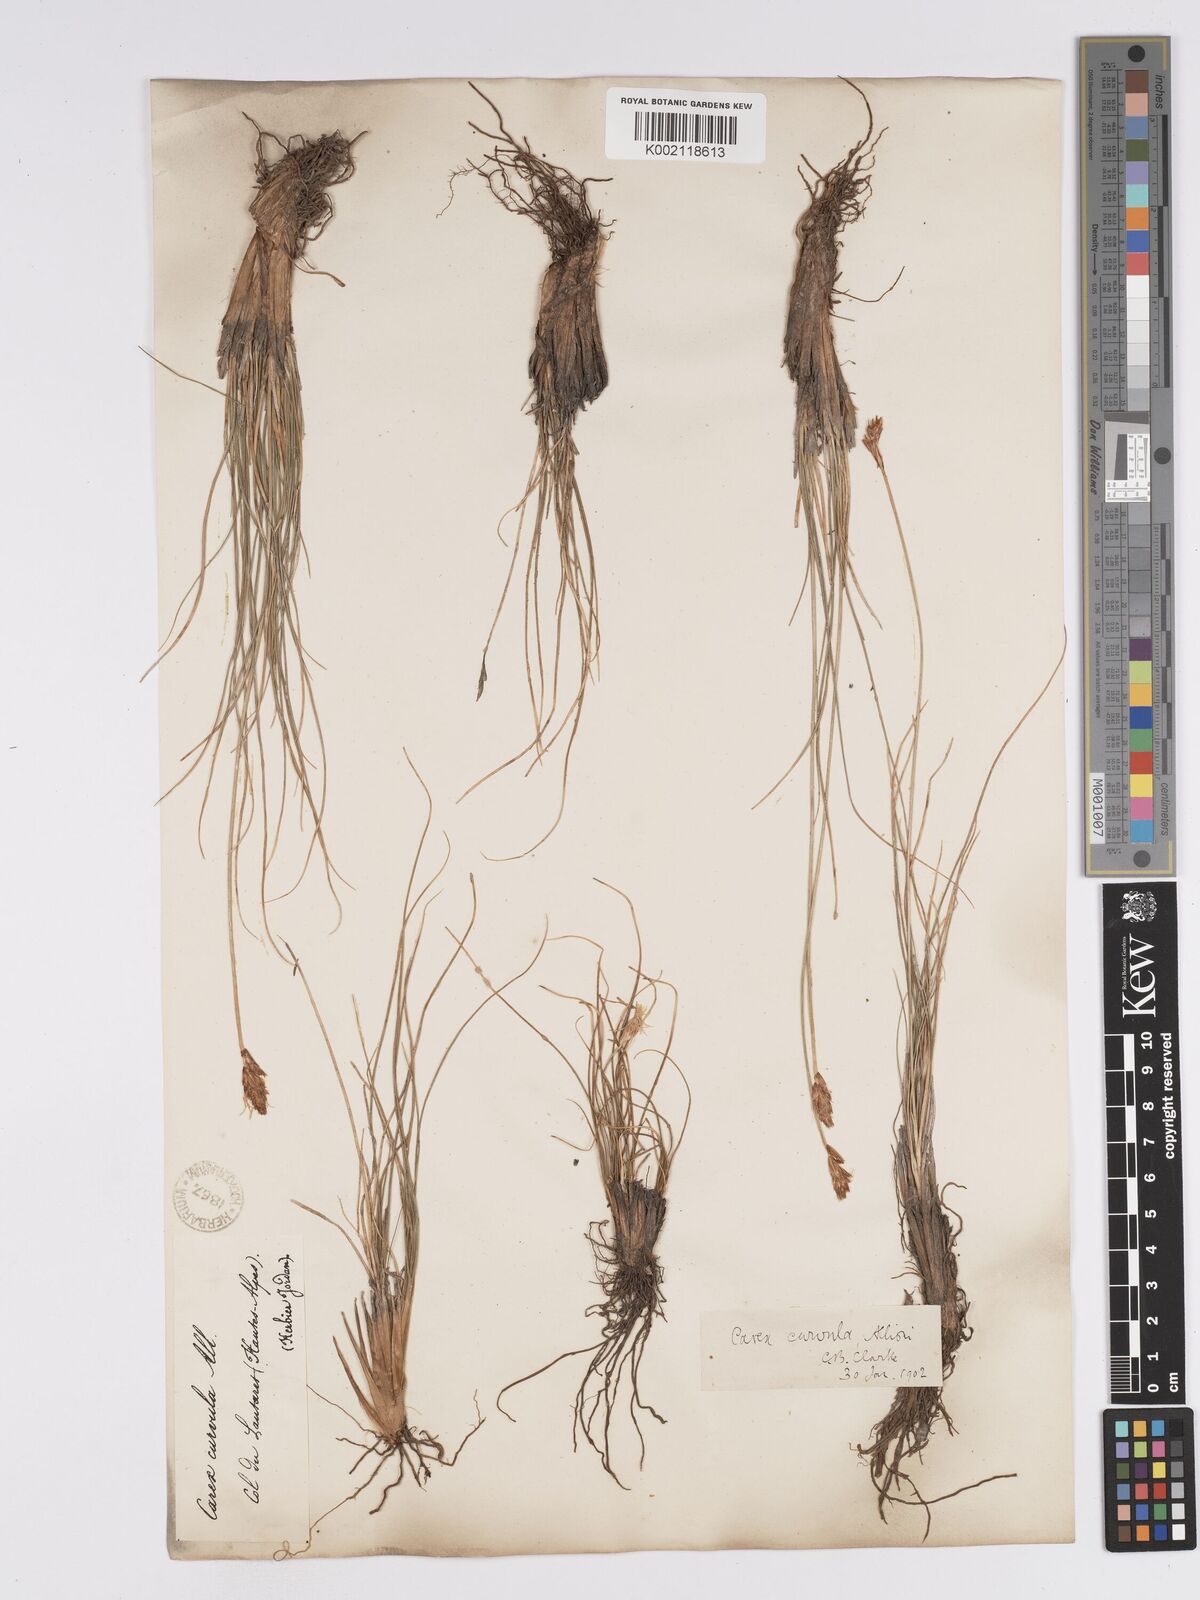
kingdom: Plantae
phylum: Tracheophyta
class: Liliopsida
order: Poales
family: Cyperaceae
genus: Carex
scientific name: Carex curvula
